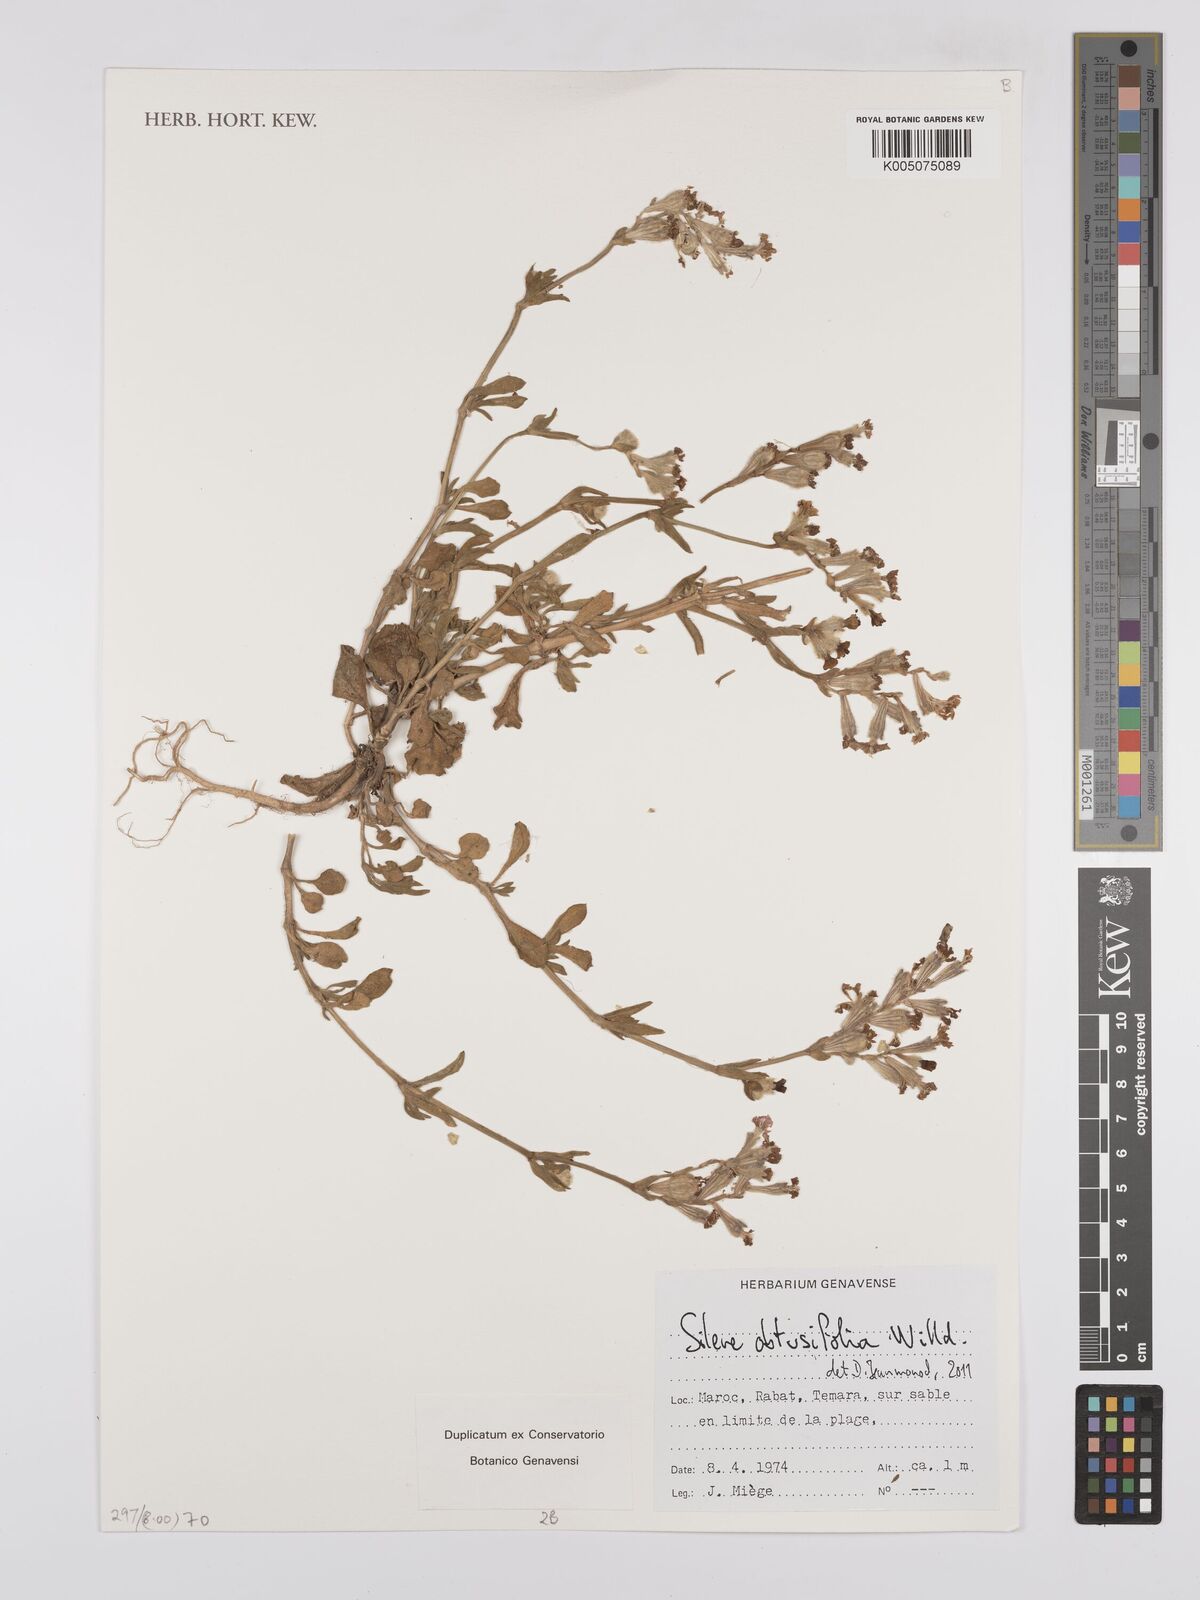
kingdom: Plantae
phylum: Tracheophyta
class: Magnoliopsida
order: Caryophyllales
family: Caryophyllaceae
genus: Silene
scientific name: Silene obtusifolia
